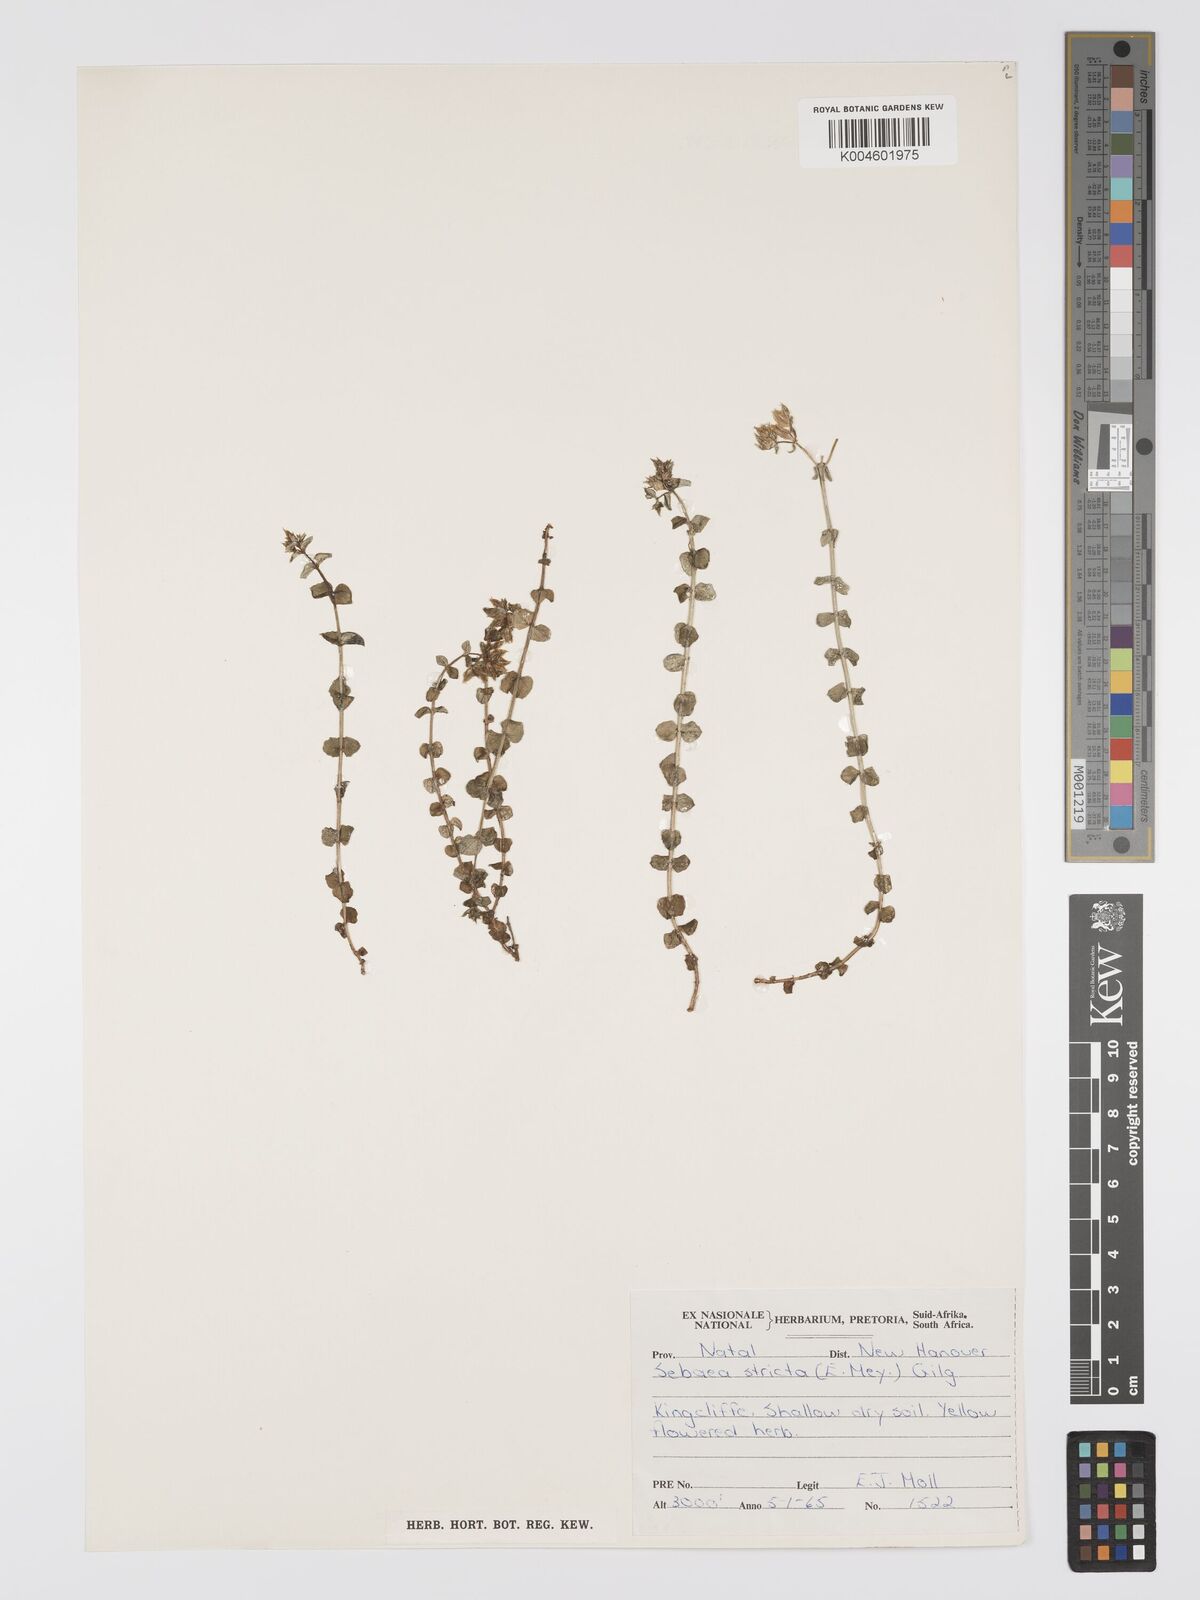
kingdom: Plantae
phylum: Tracheophyta
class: Magnoliopsida
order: Gentianales
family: Gentianaceae
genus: Sebaea
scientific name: Sebaea
